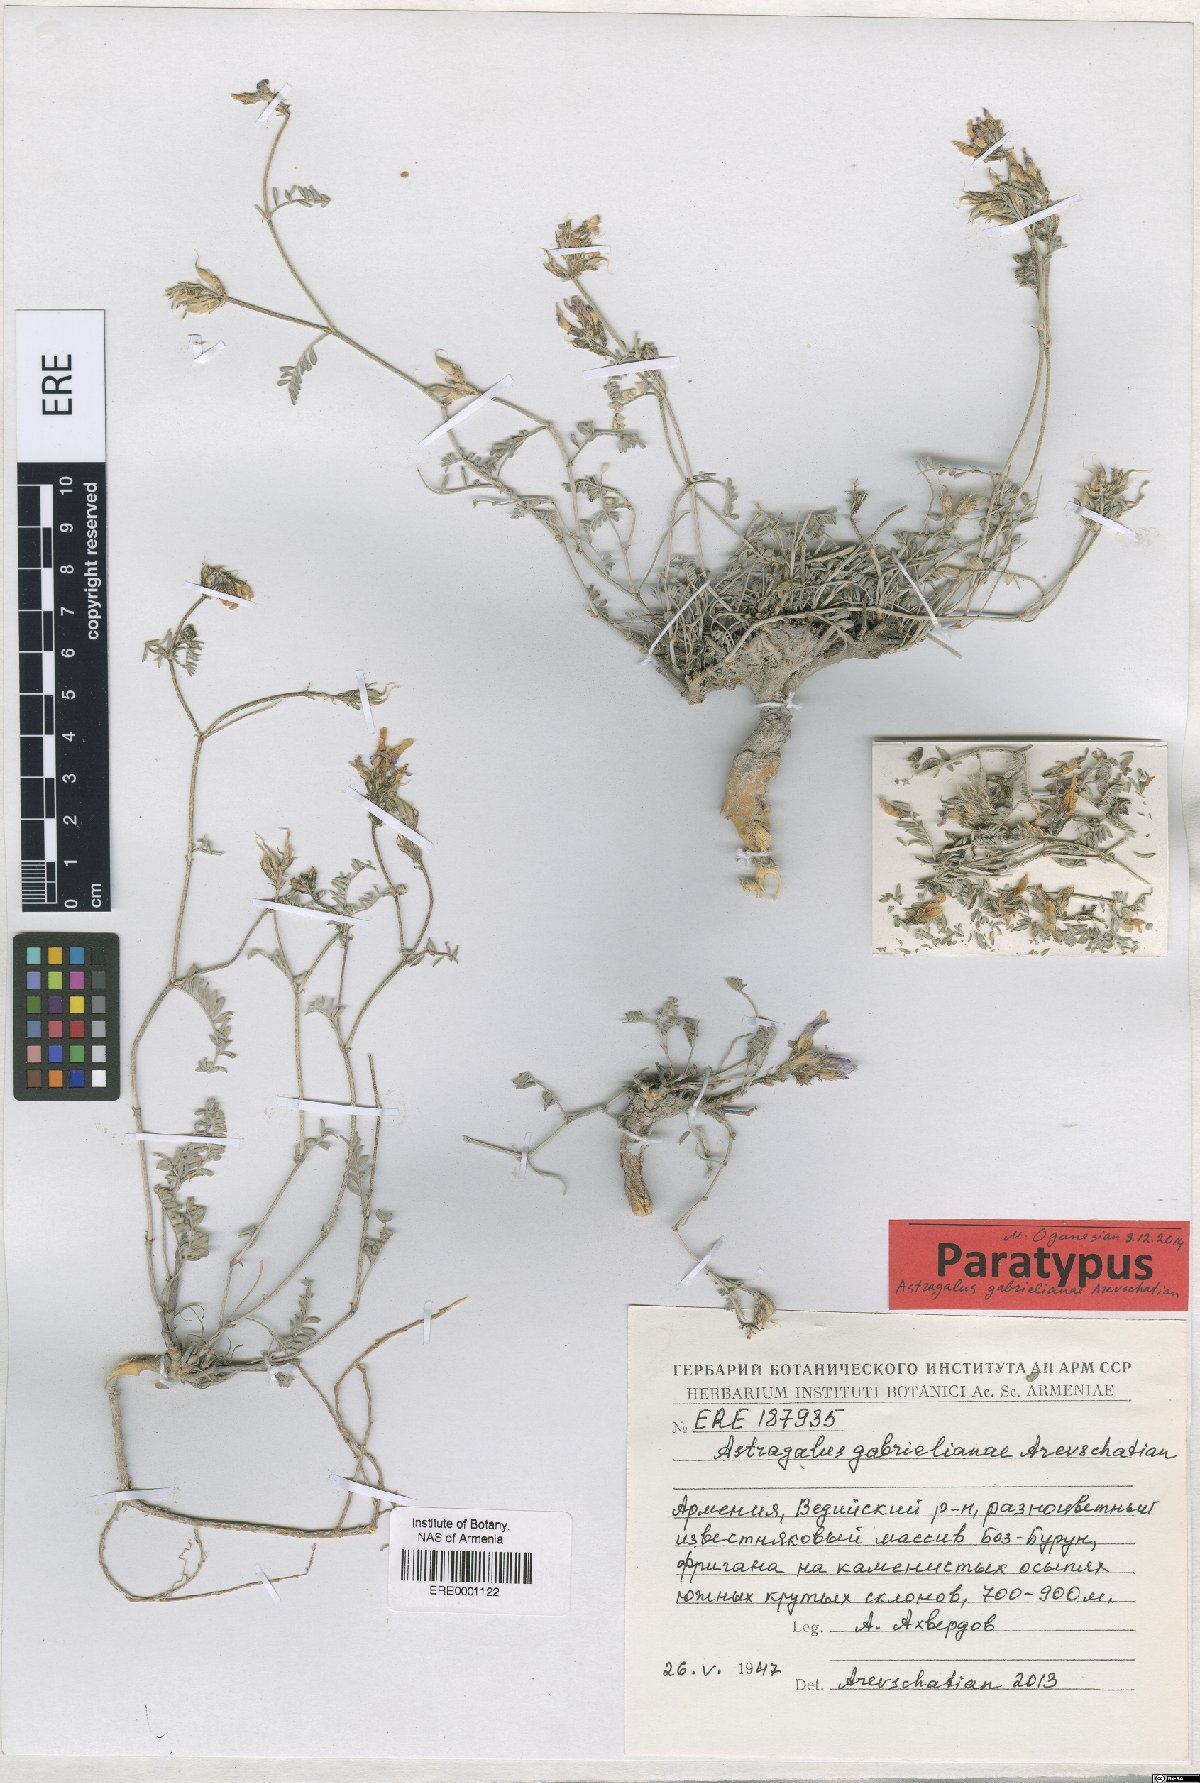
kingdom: Plantae
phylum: Tracheophyta
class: Magnoliopsida
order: Fabales
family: Fabaceae
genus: Astragalus
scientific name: Astragalus gabrelianae
